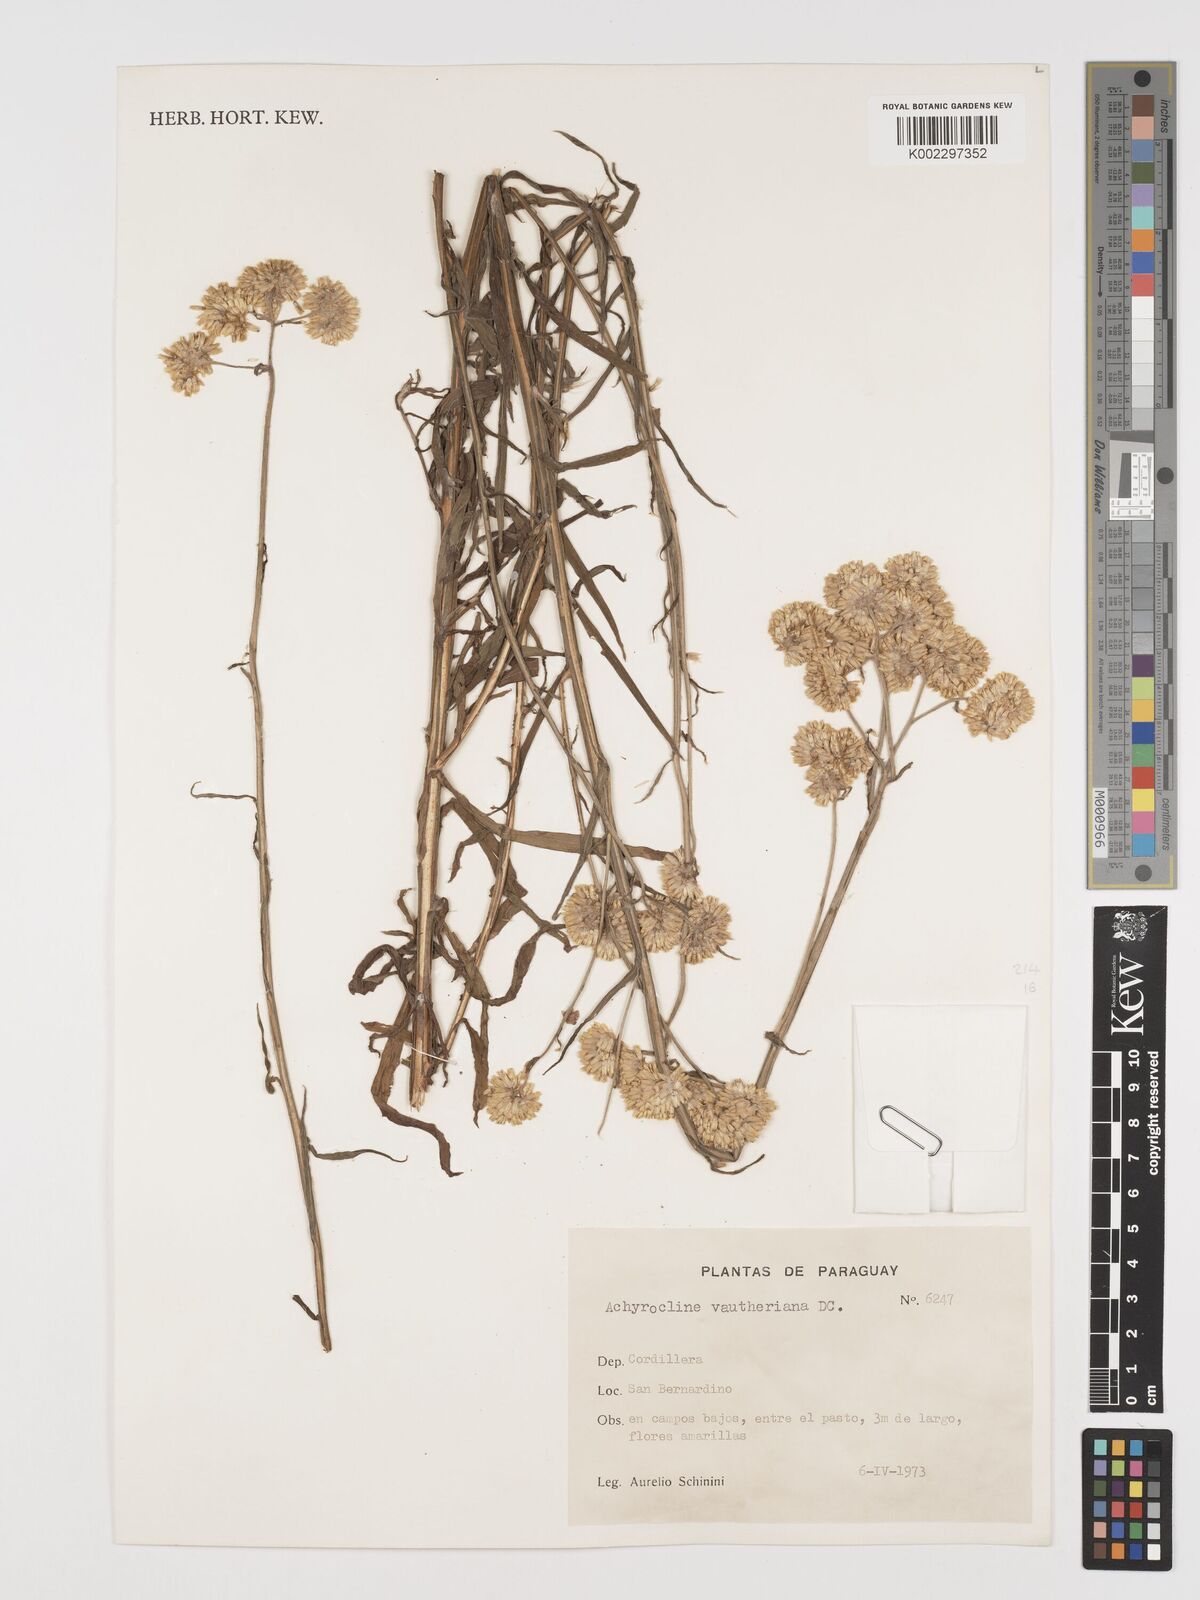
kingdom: Plantae
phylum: Tracheophyta
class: Magnoliopsida
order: Asterales
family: Asteraceae
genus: Achyrocline
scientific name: Achyrocline alata
